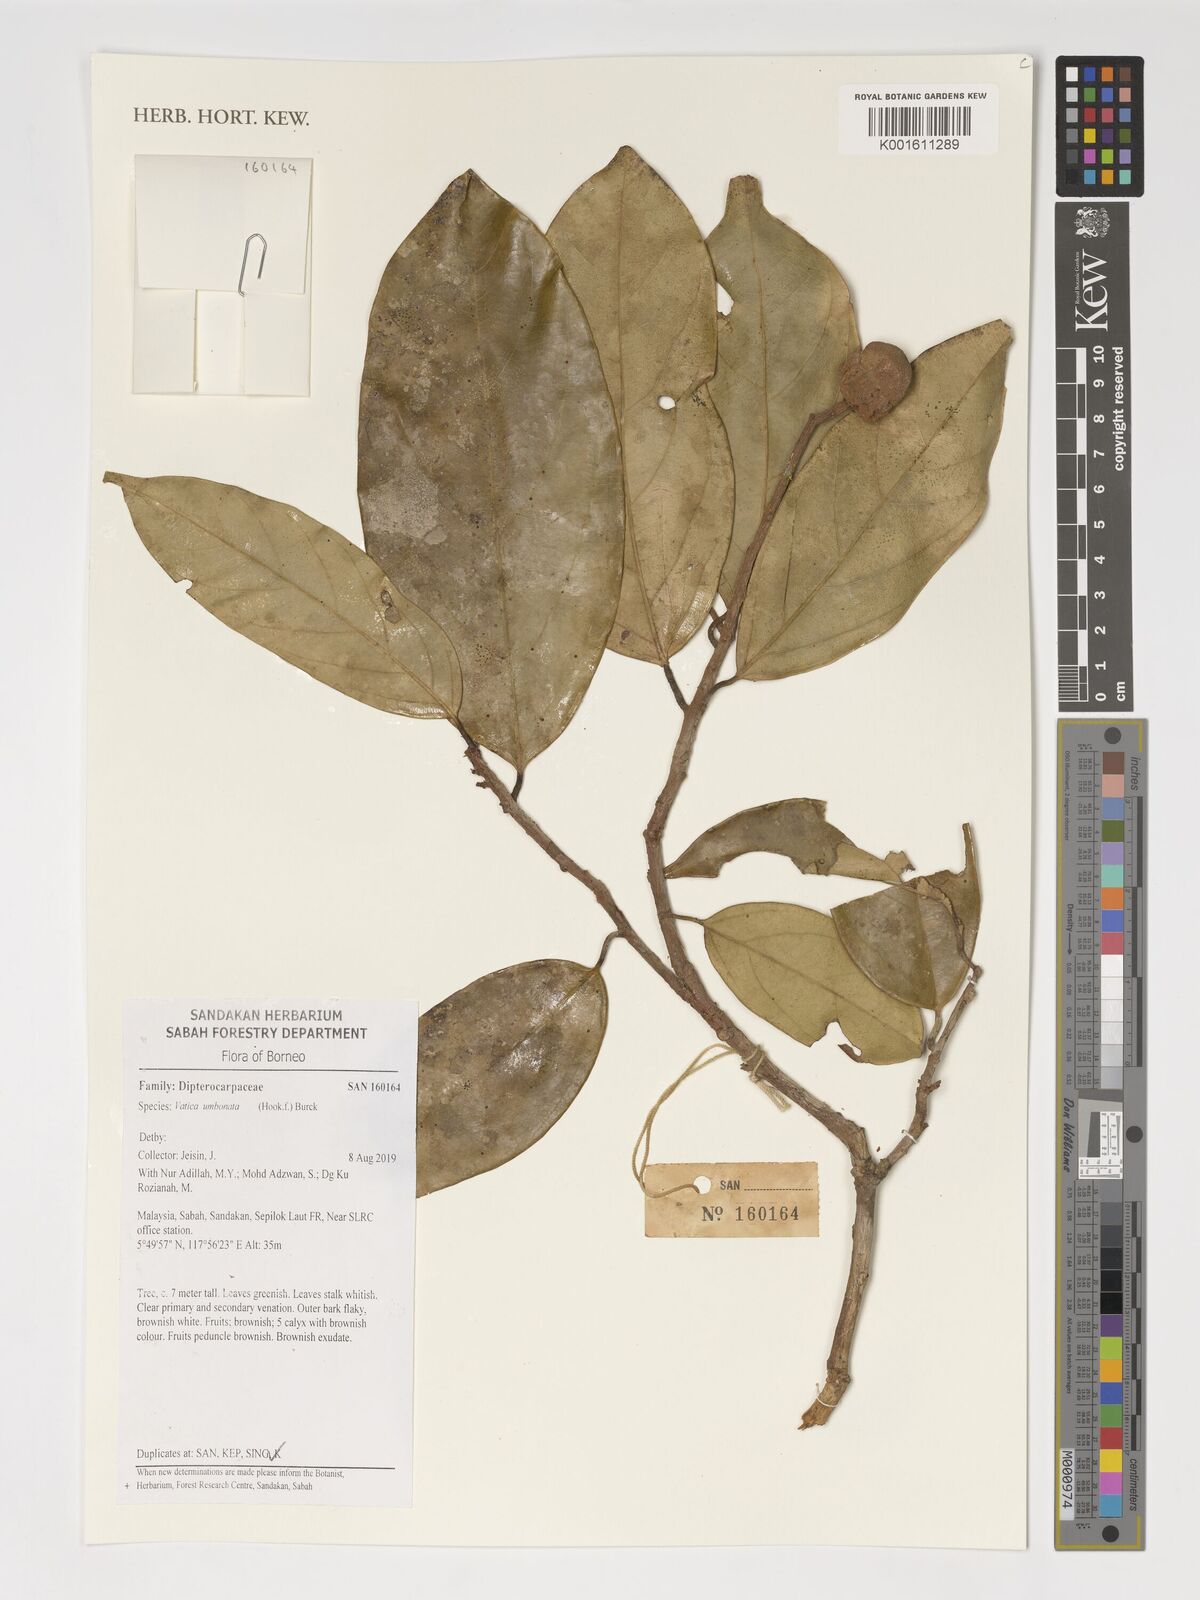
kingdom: Plantae
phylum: Tracheophyta
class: Magnoliopsida
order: Malvales
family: Dipterocarpaceae
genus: Vatica
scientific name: Vatica umbonata
